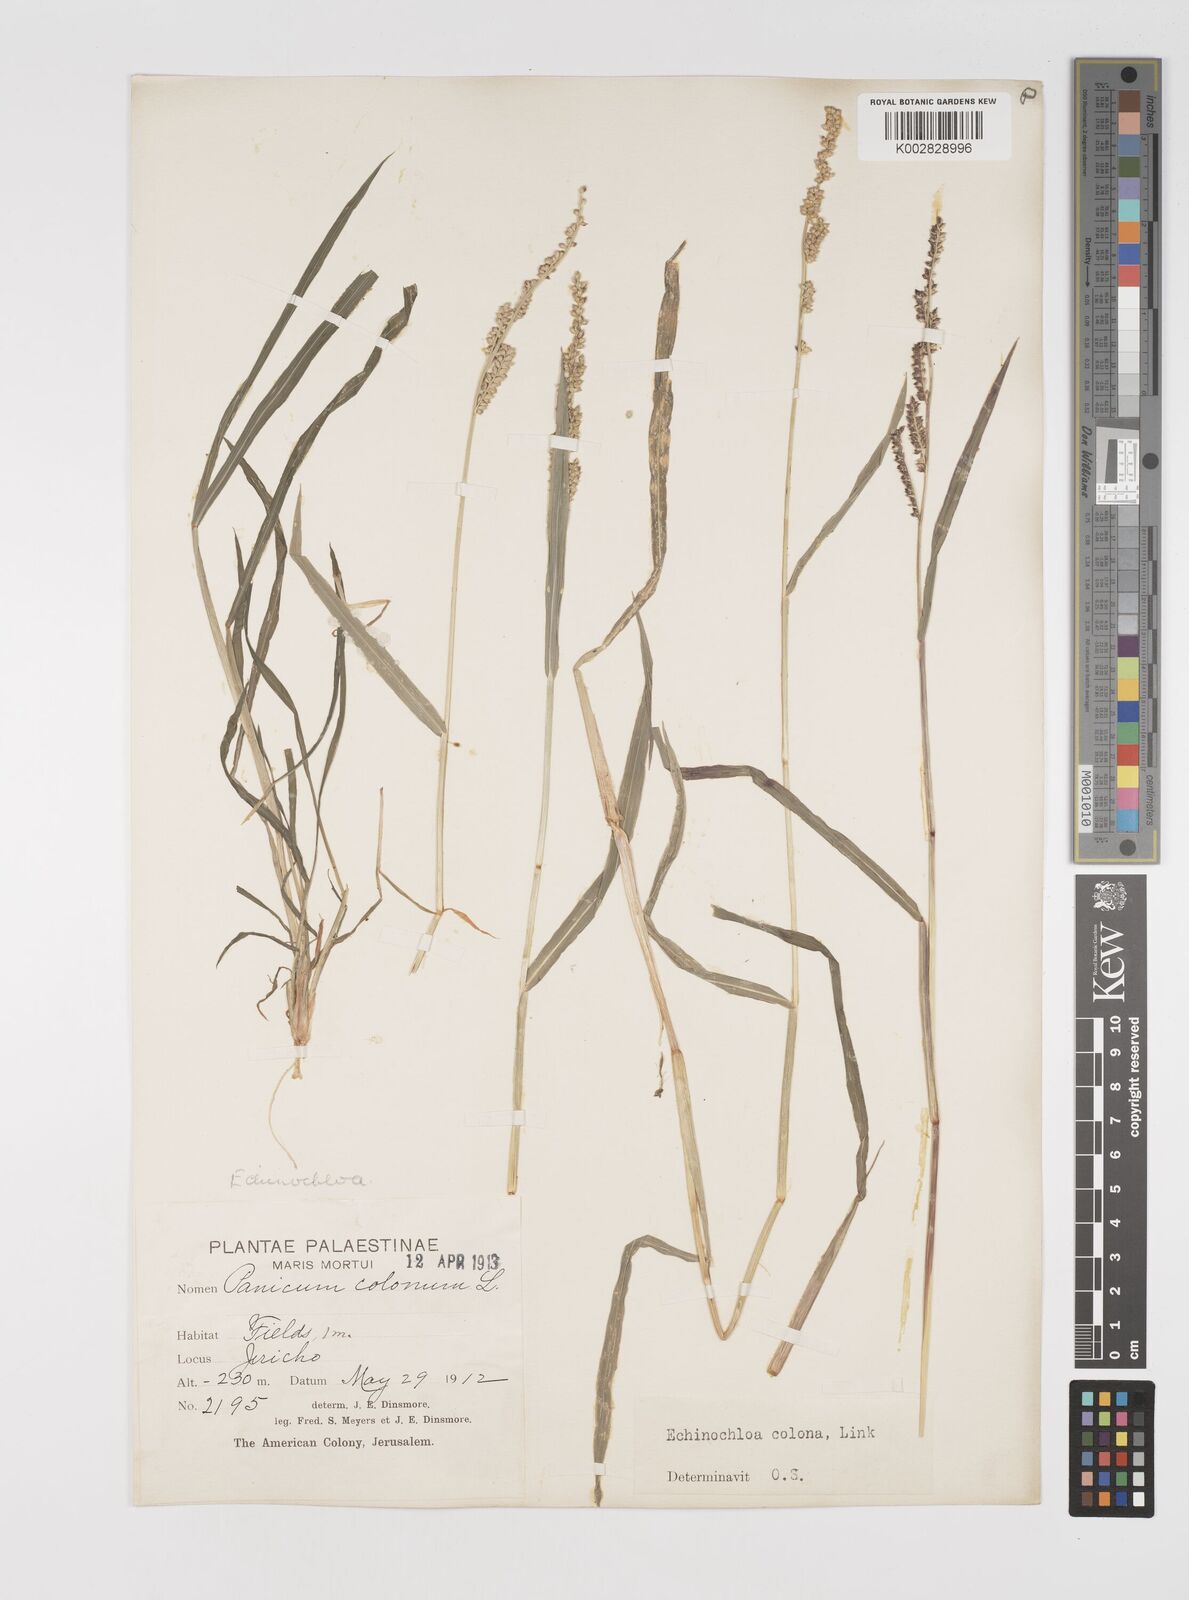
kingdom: Plantae
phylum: Tracheophyta
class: Liliopsida
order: Poales
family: Poaceae
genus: Echinochloa
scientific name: Echinochloa colonum
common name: Jungle rice
